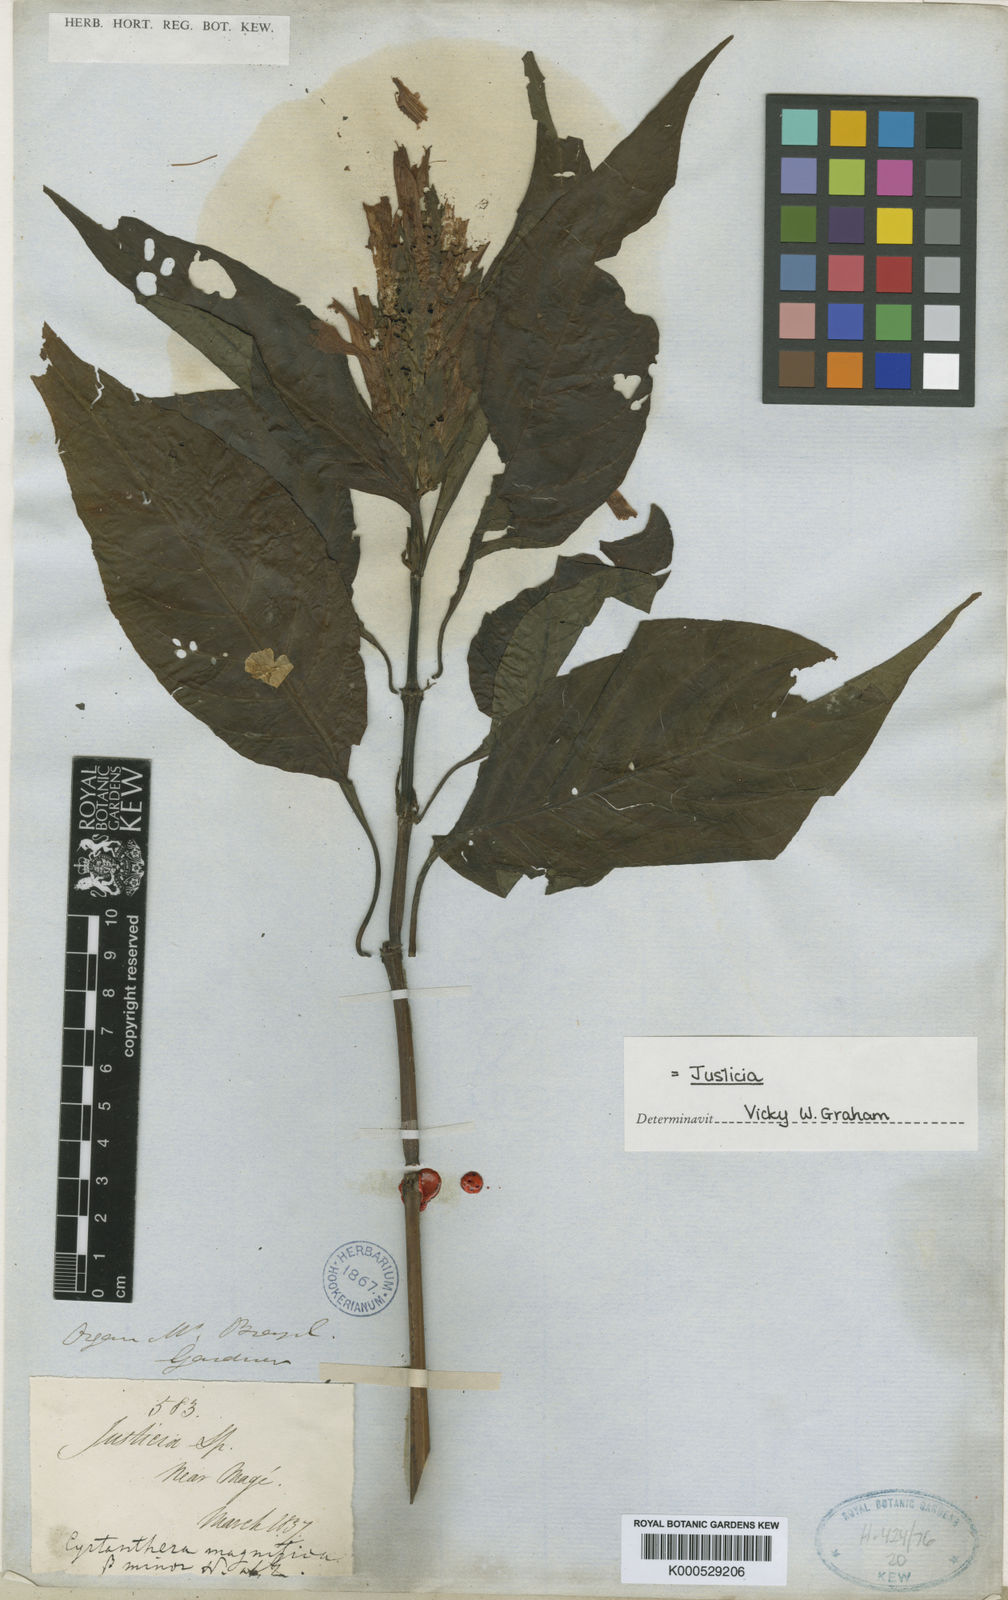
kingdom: Plantae
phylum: Tracheophyta
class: Magnoliopsida
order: Lamiales
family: Acanthaceae
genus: Justicia
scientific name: Justicia carnea
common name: Brazilian-plume
